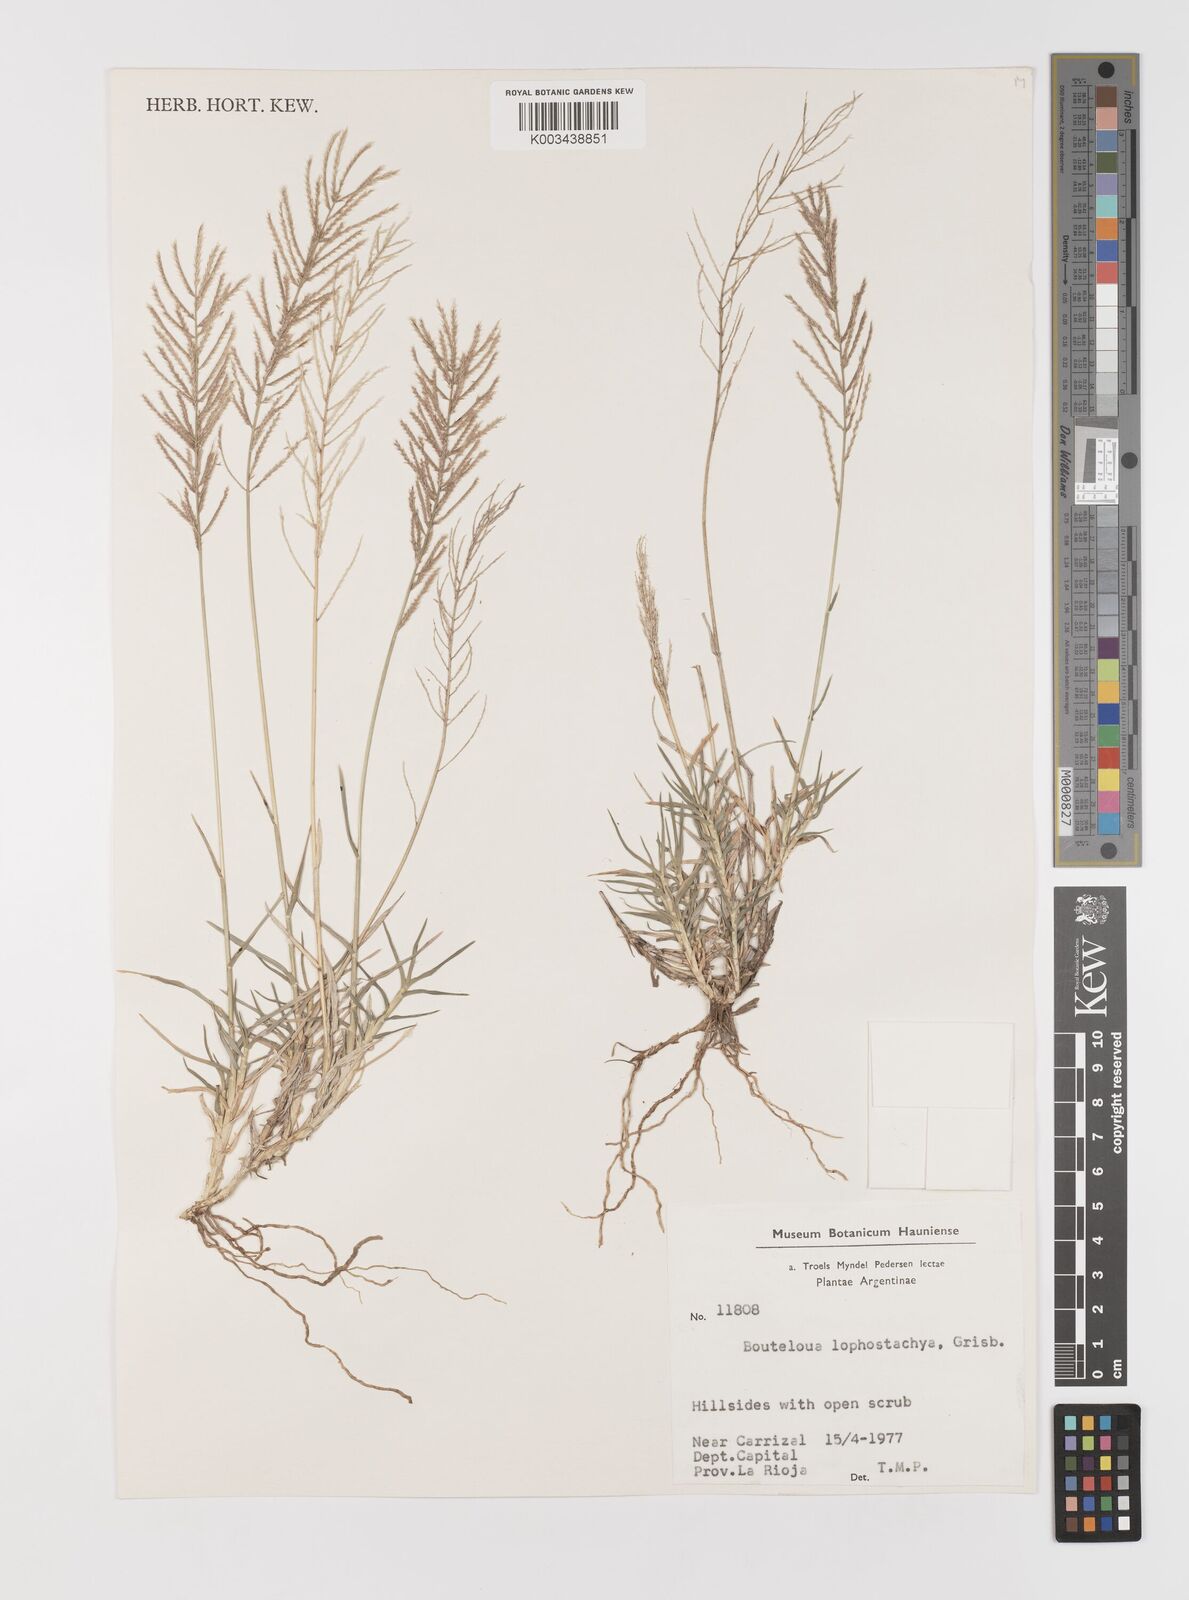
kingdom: Plantae
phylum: Tracheophyta
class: Liliopsida
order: Poales
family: Poaceae
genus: Neobouteloua
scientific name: Neobouteloua lophostachya
